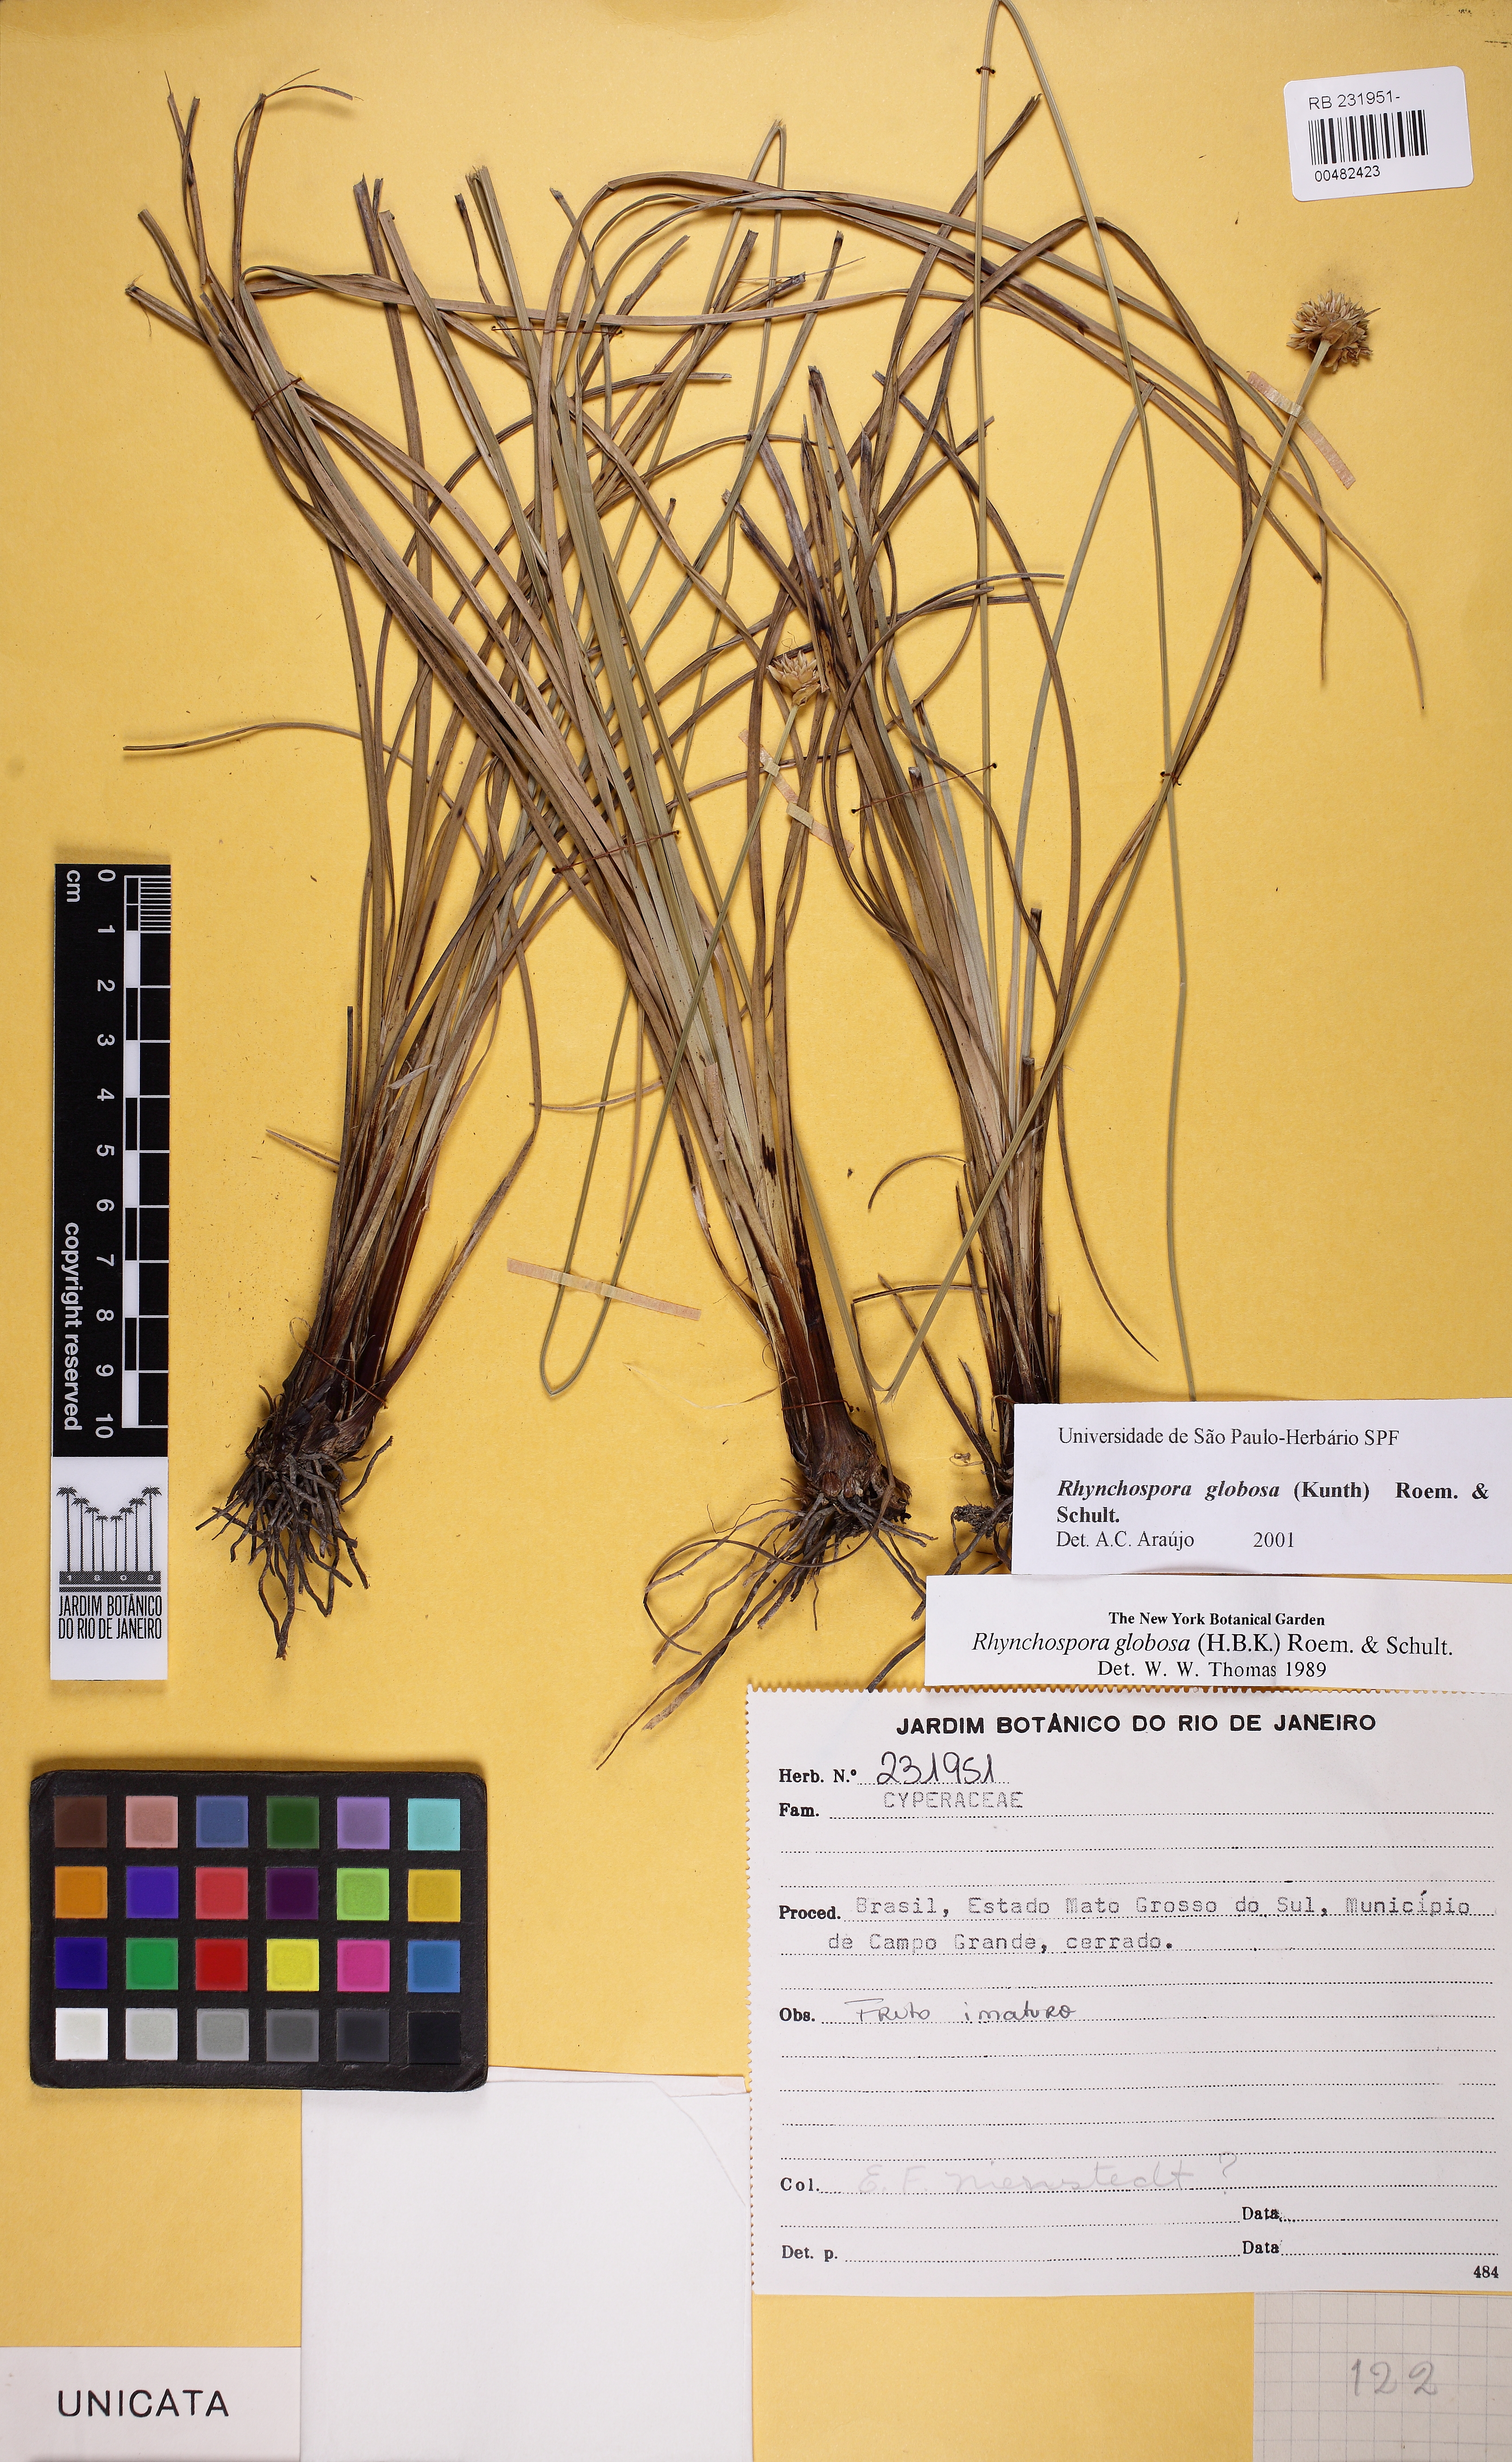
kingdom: Plantae
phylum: Tracheophyta
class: Liliopsida
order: Poales
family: Cyperaceae
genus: Rhynchospora
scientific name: Rhynchospora globosa
